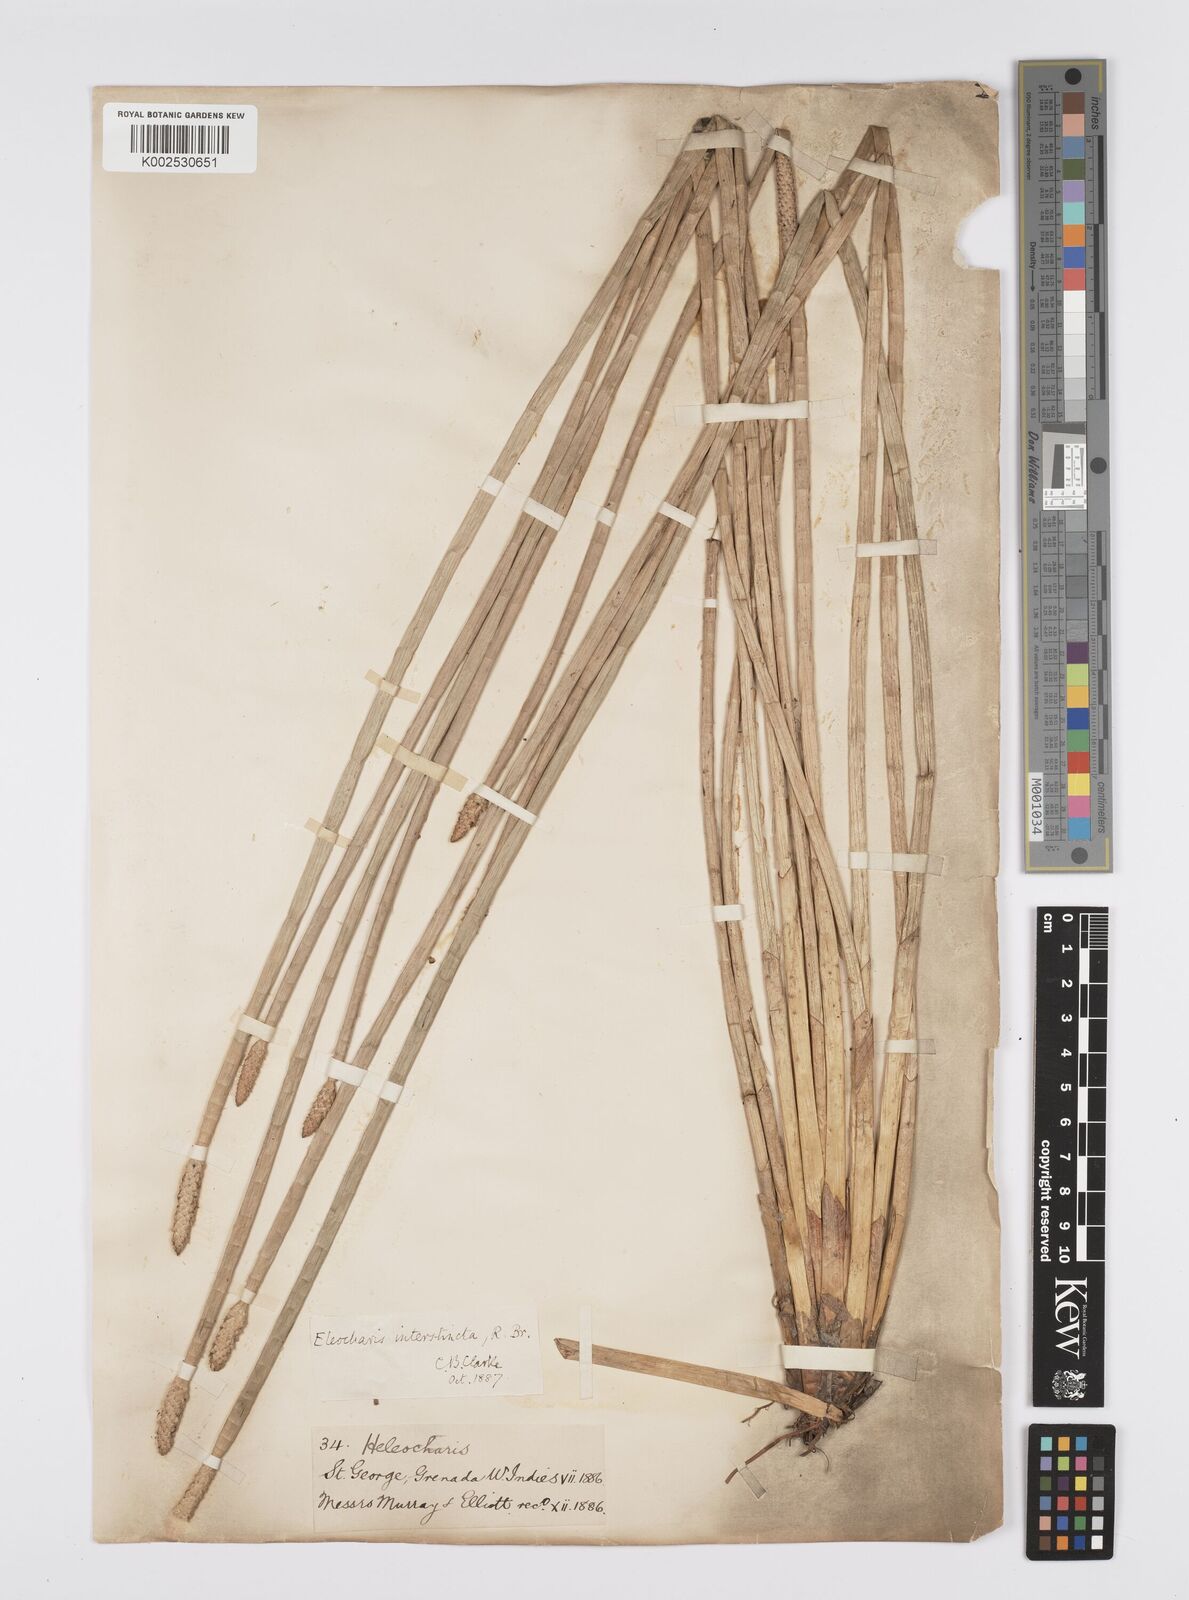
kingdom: Plantae
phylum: Tracheophyta
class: Liliopsida
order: Poales
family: Cyperaceae
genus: Eleocharis
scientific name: Eleocharis interstincta
